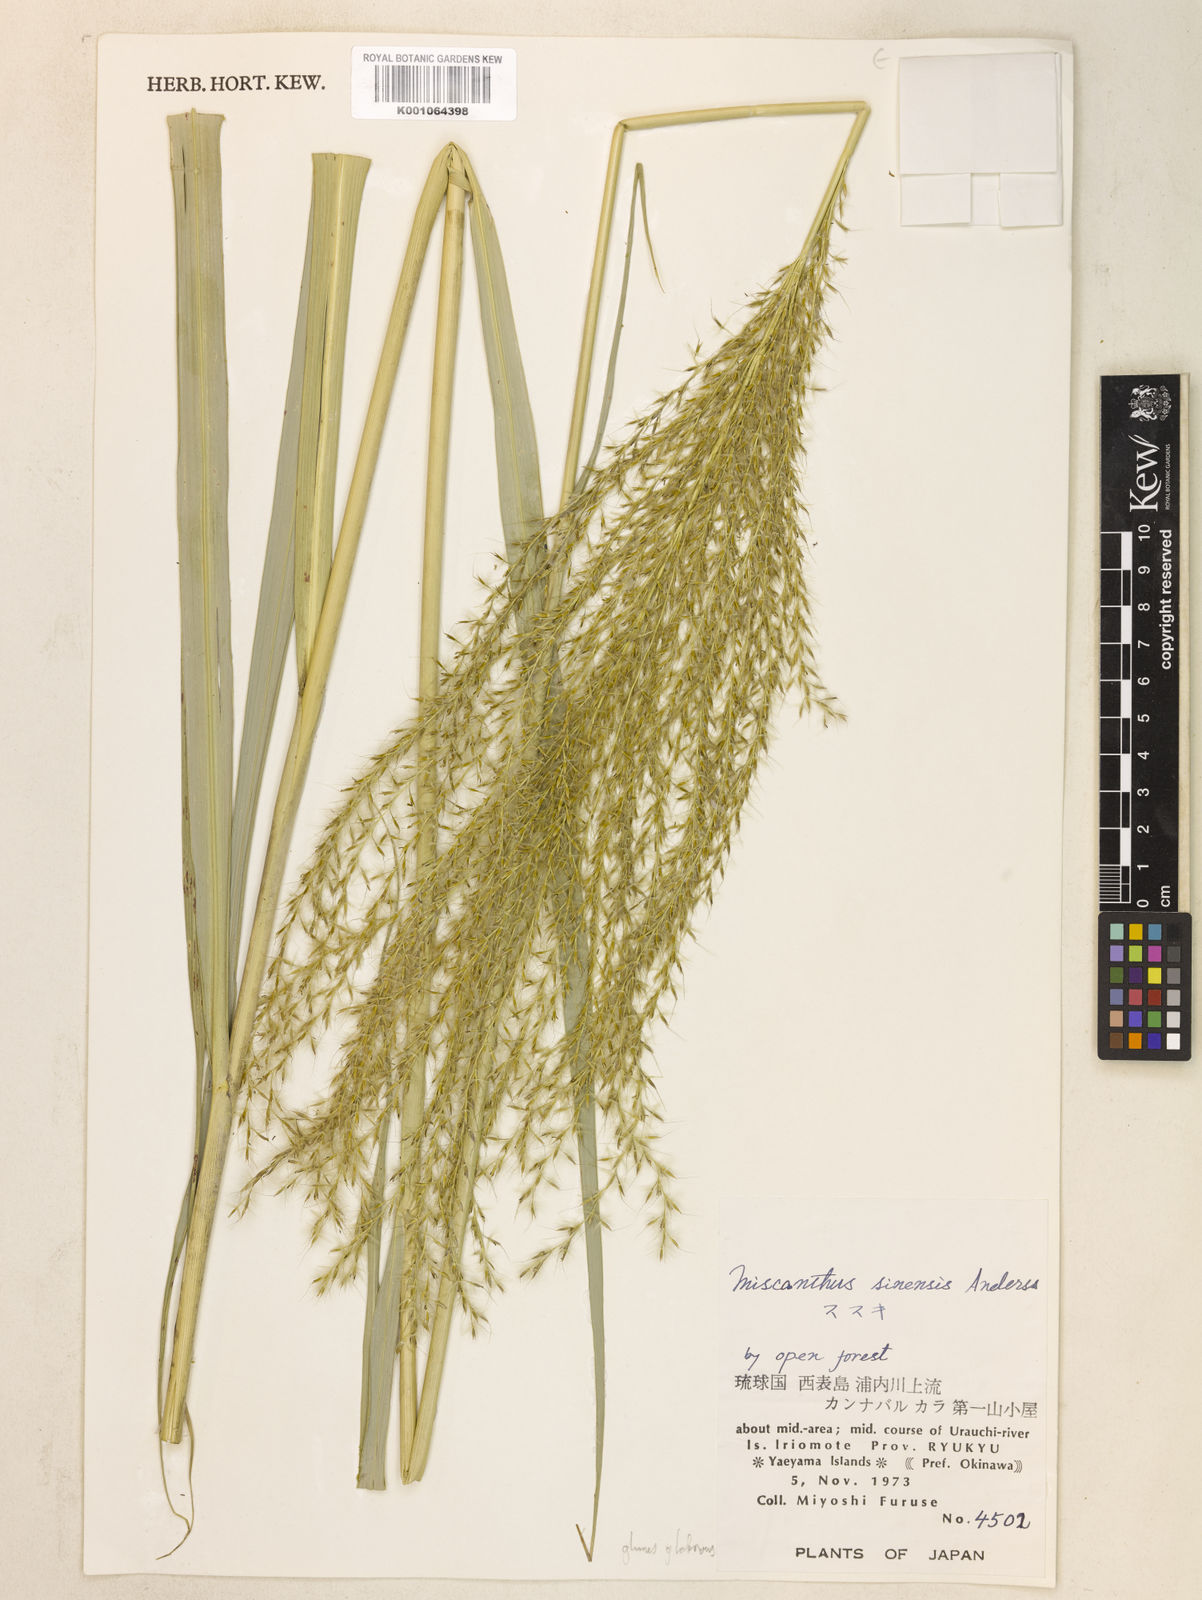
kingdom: Plantae
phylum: Tracheophyta
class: Liliopsida
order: Poales
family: Poaceae
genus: Miscanthus
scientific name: Miscanthus sinensis
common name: Chinese silvergrass
